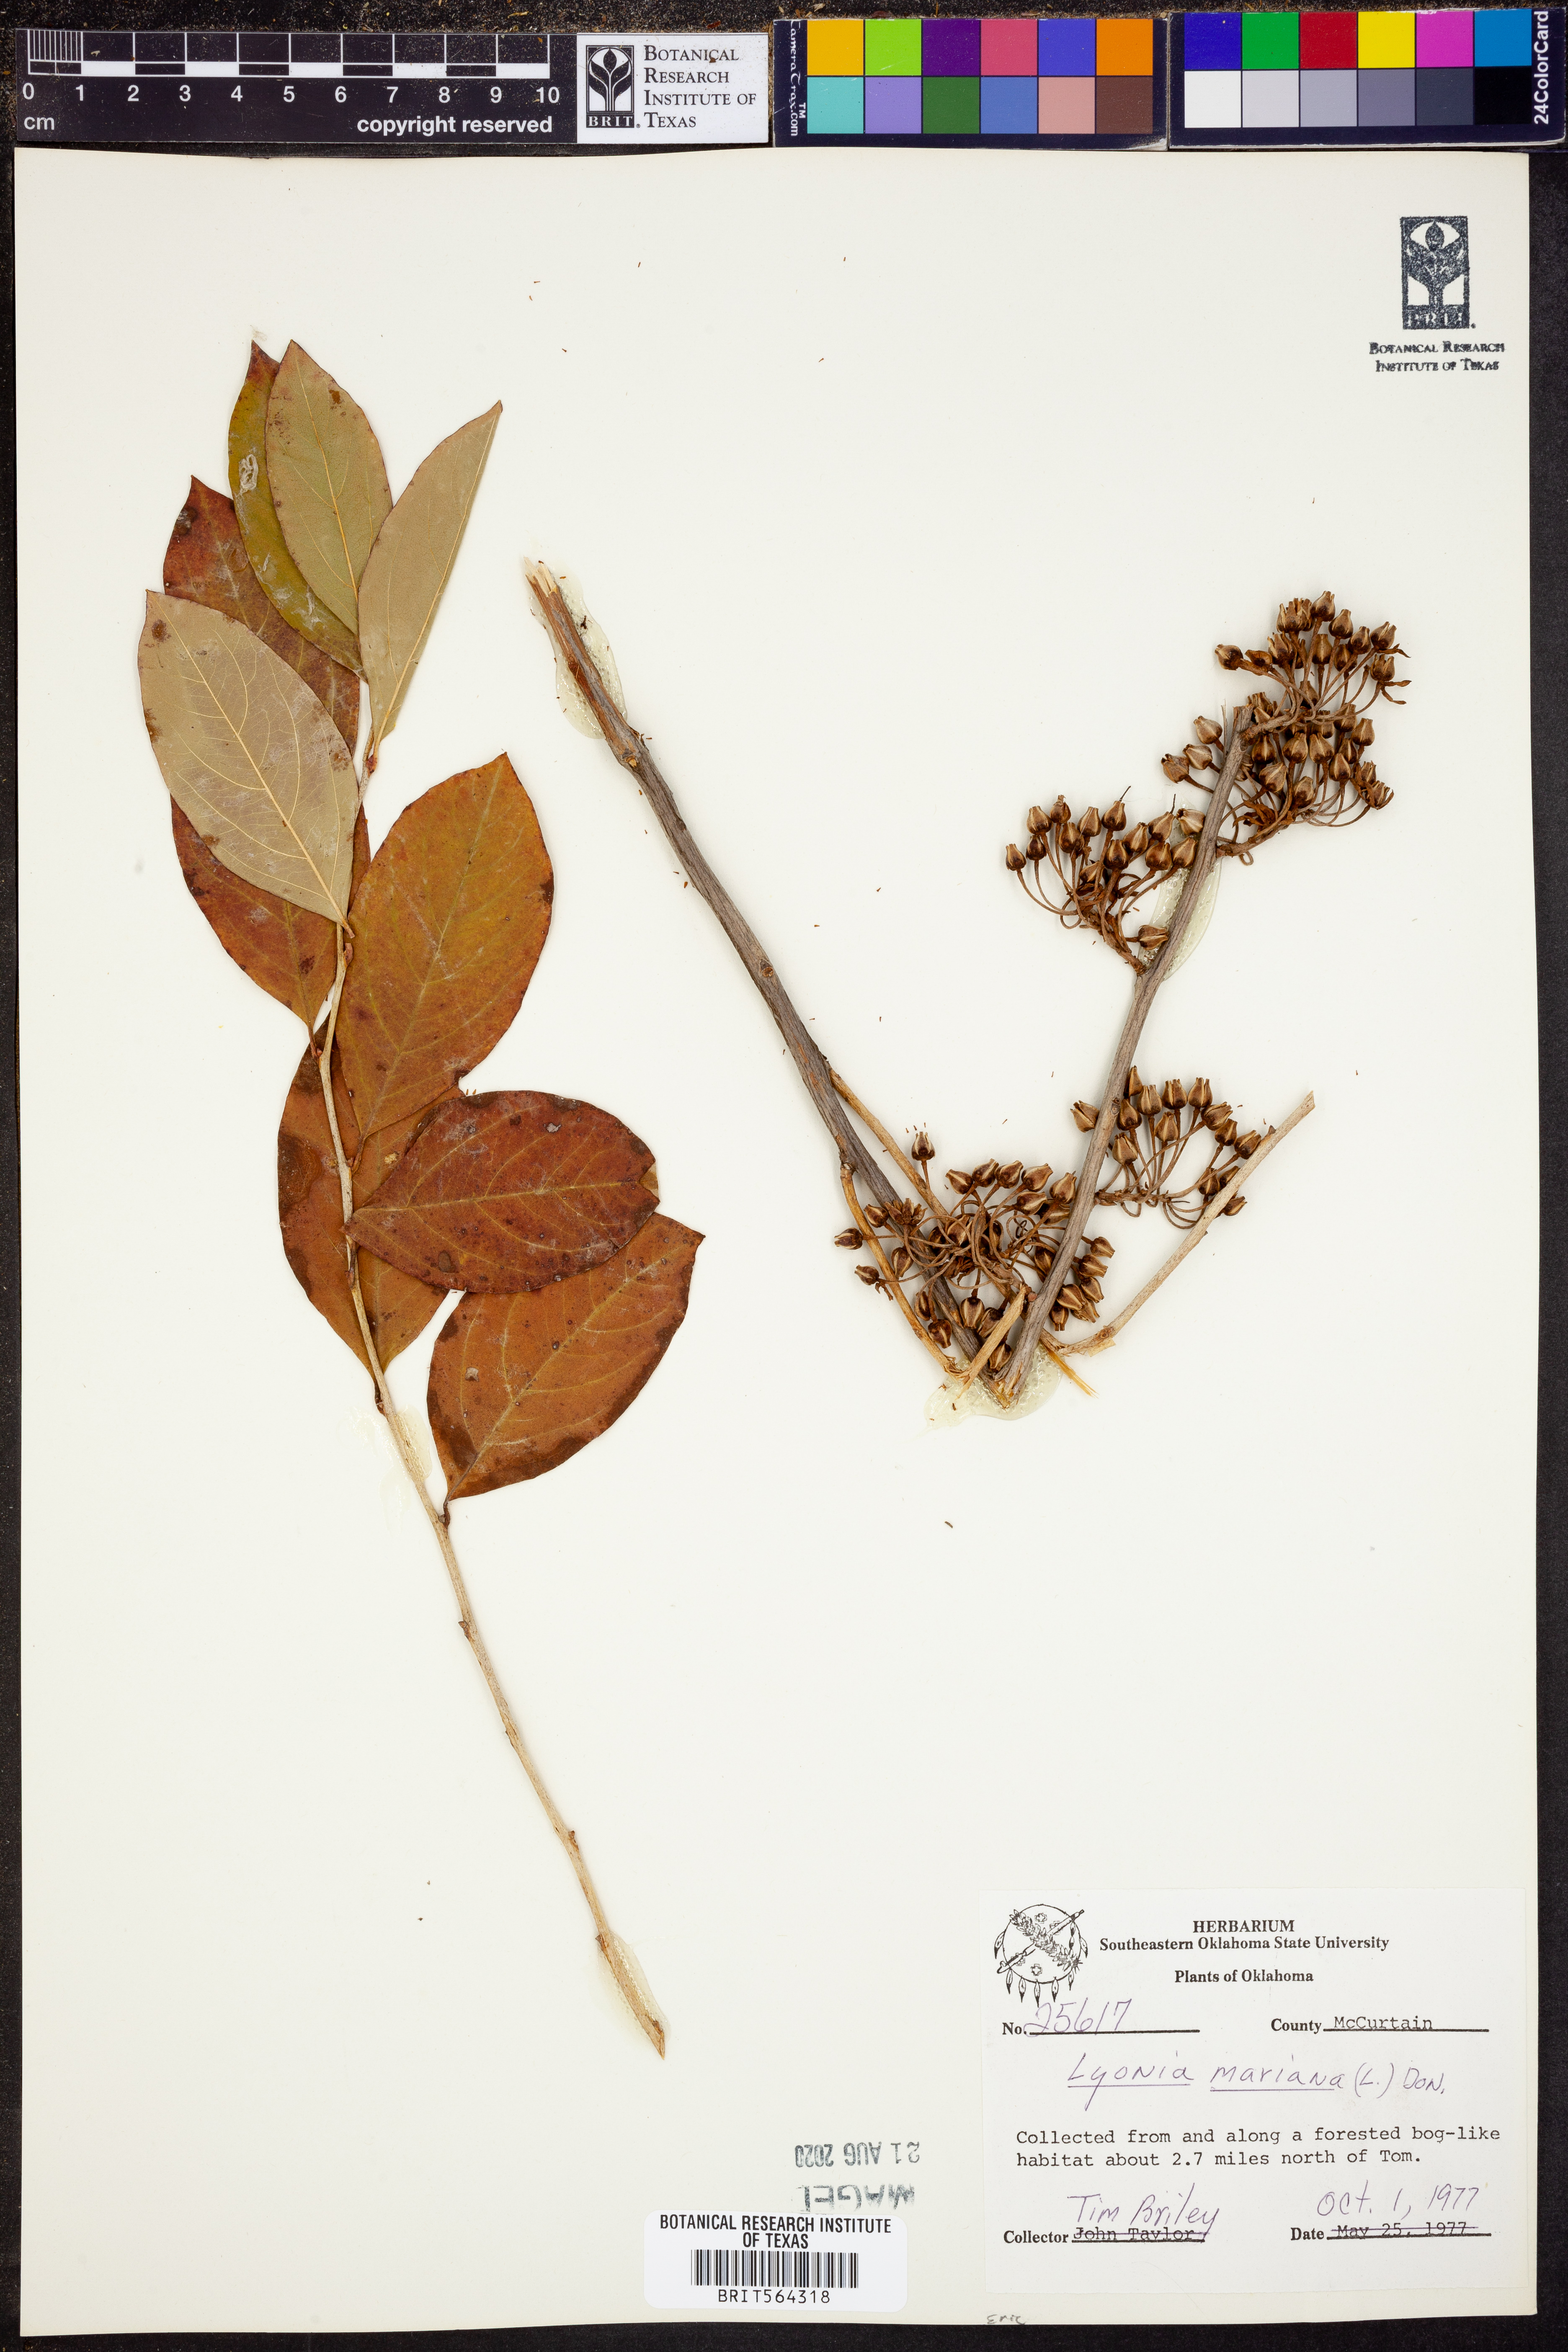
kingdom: Plantae
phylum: Tracheophyta
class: Magnoliopsida
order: Ericales
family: Ericaceae
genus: Lyonia
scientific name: Lyonia mariana
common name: Staggerbush
